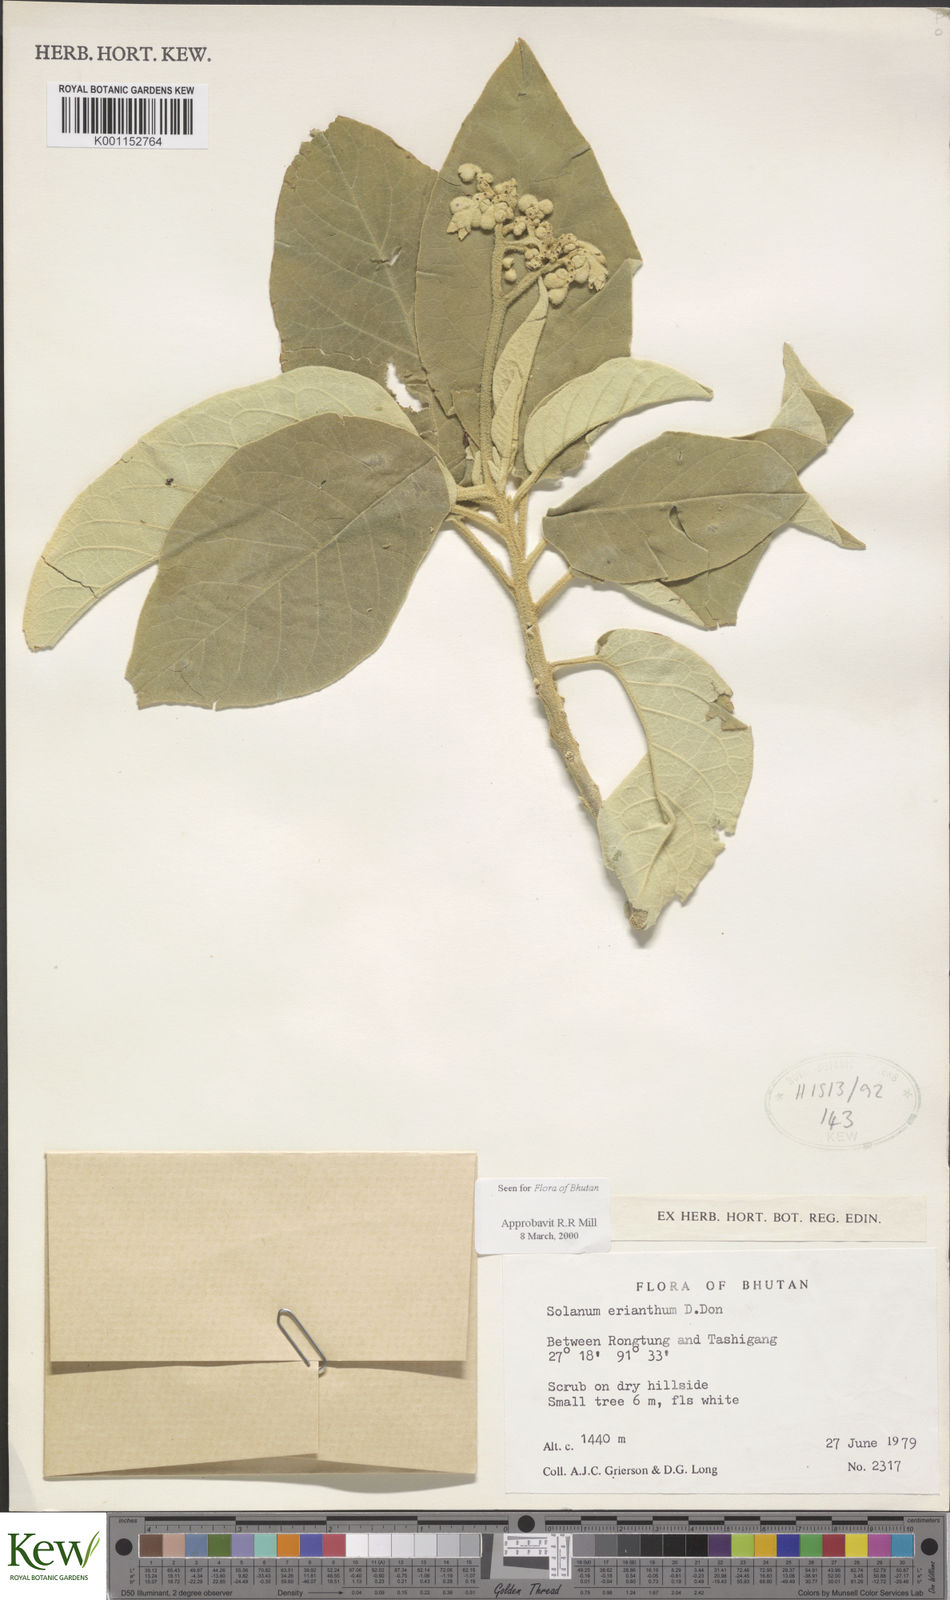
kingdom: Plantae
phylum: Tracheophyta
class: Magnoliopsida
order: Solanales
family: Solanaceae
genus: Solanum
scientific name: Solanum erianthum
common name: Tobacco-tree
